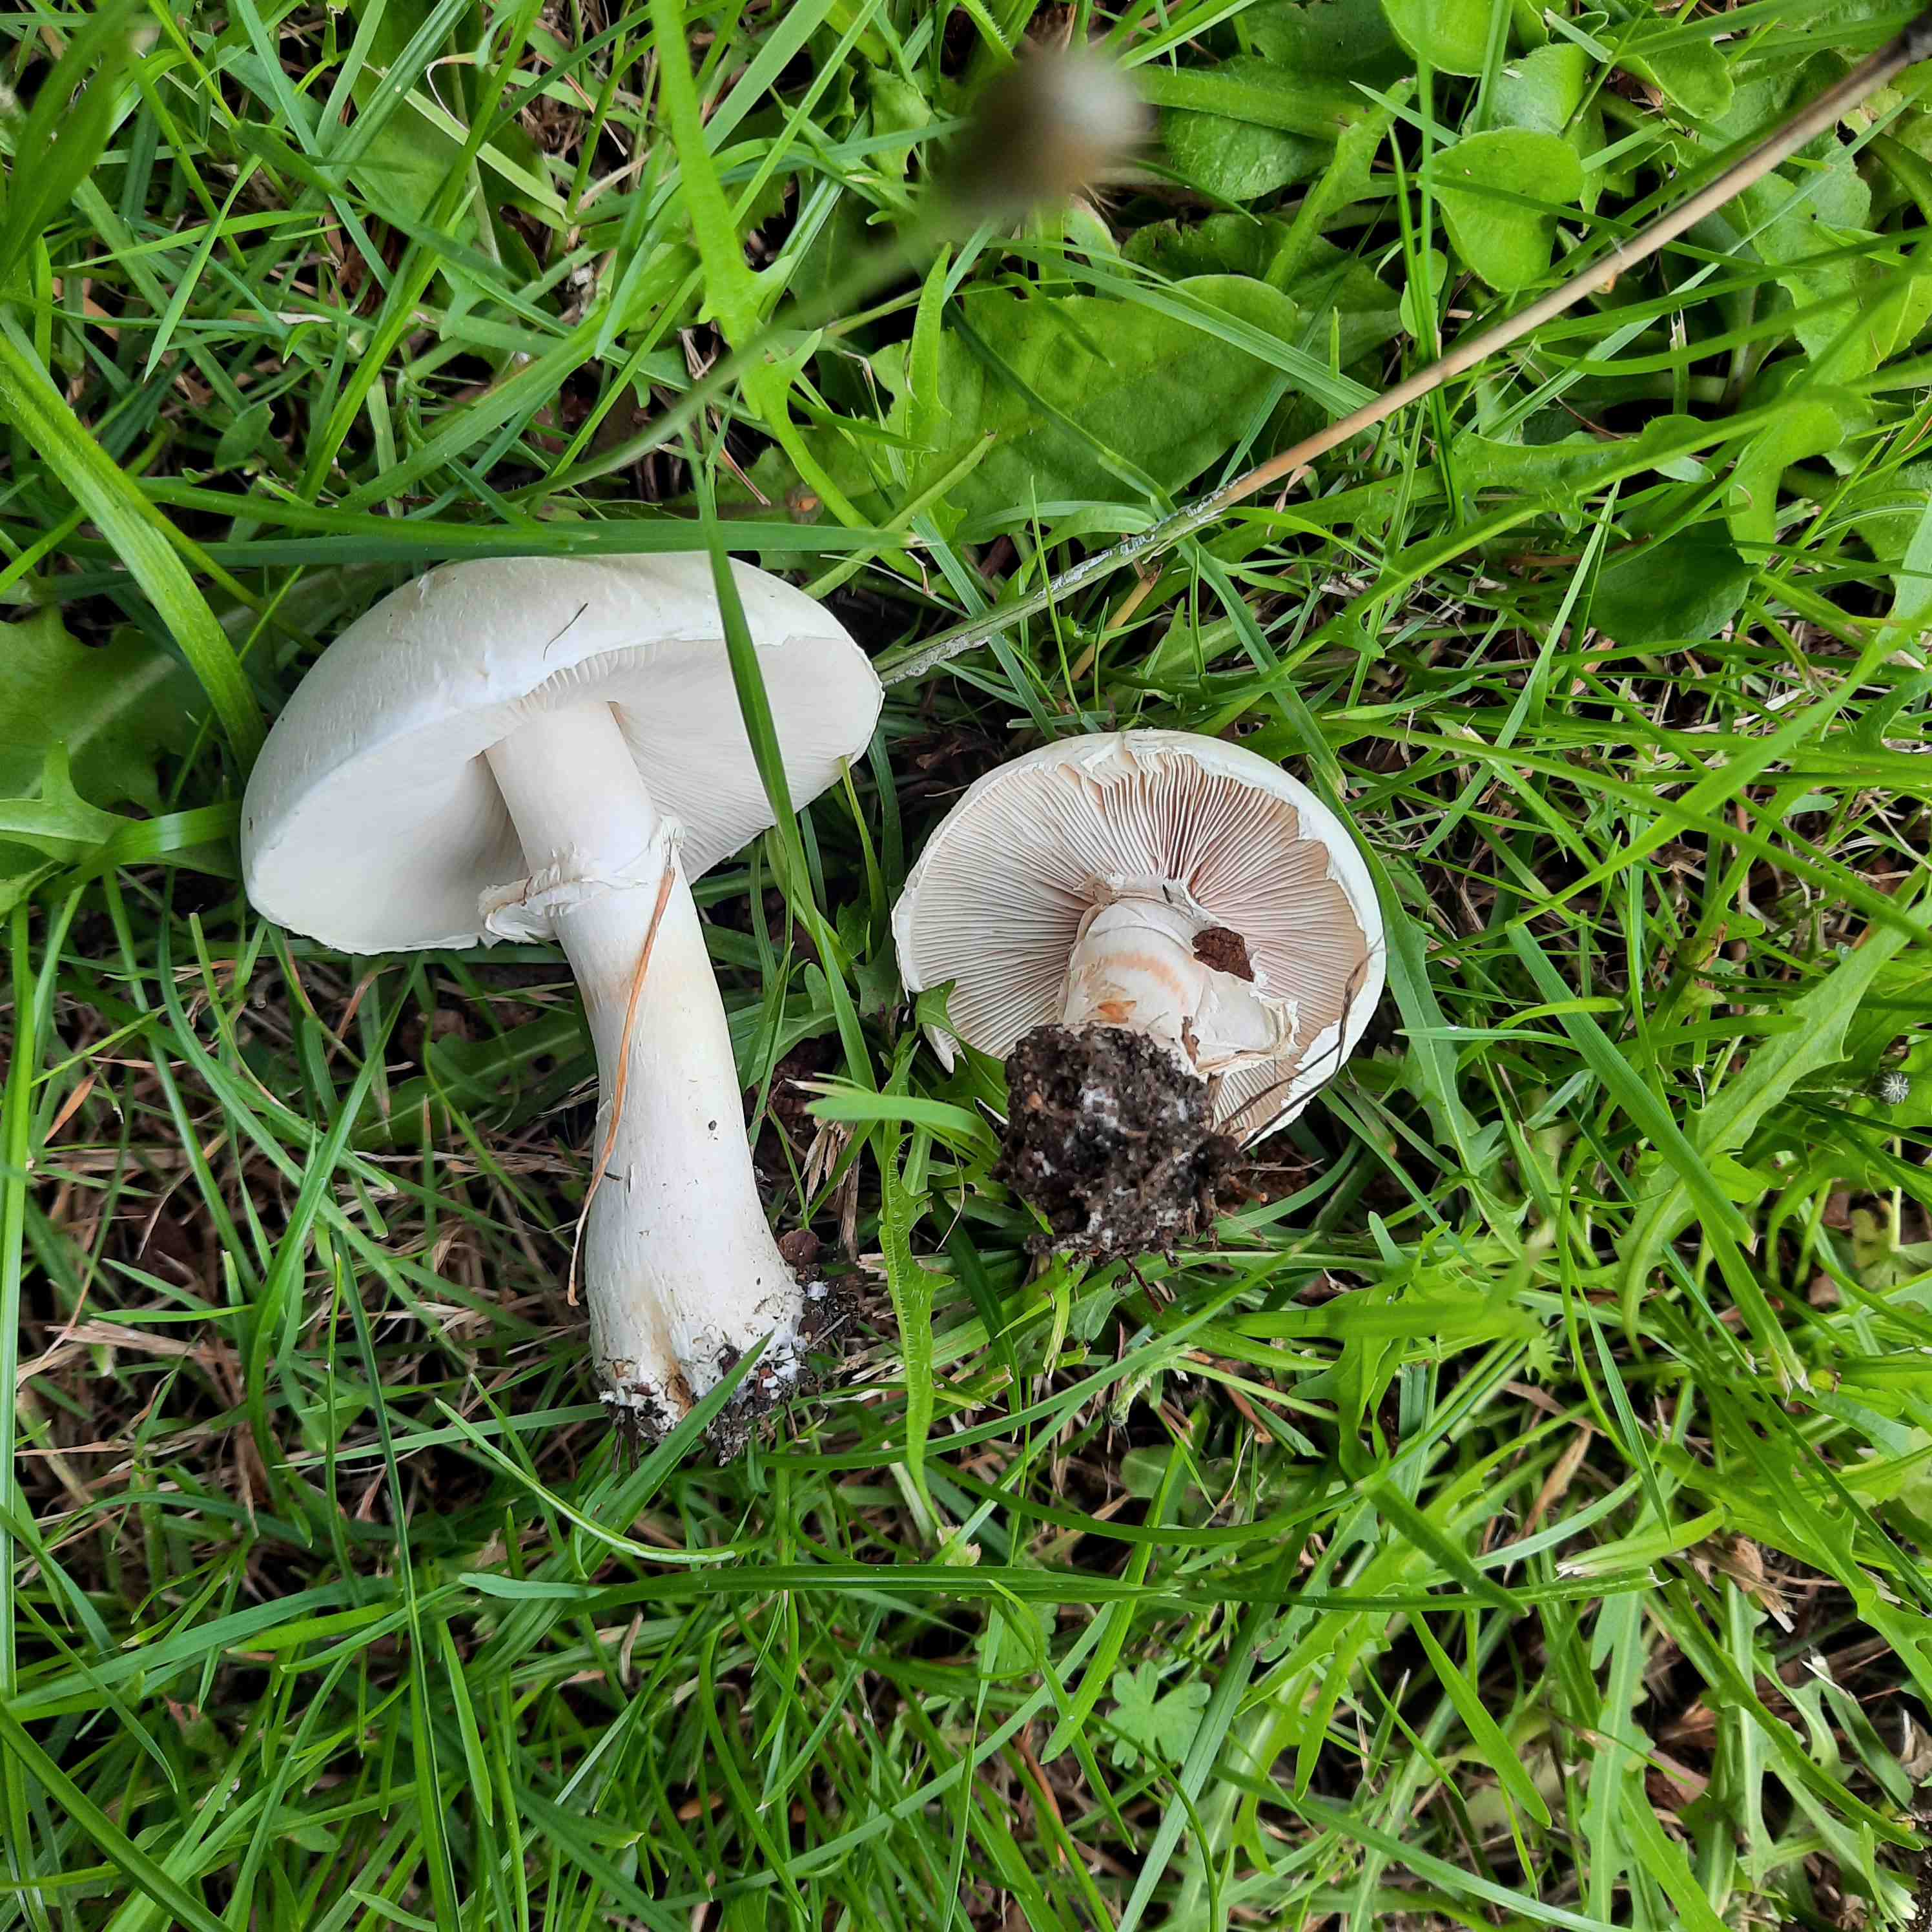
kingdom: Fungi
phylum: Basidiomycota
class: Agaricomycetes
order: Agaricales
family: Agaricaceae
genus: Leucoagaricus
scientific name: Leucoagaricus leucothites
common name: rosabladet silkehat
